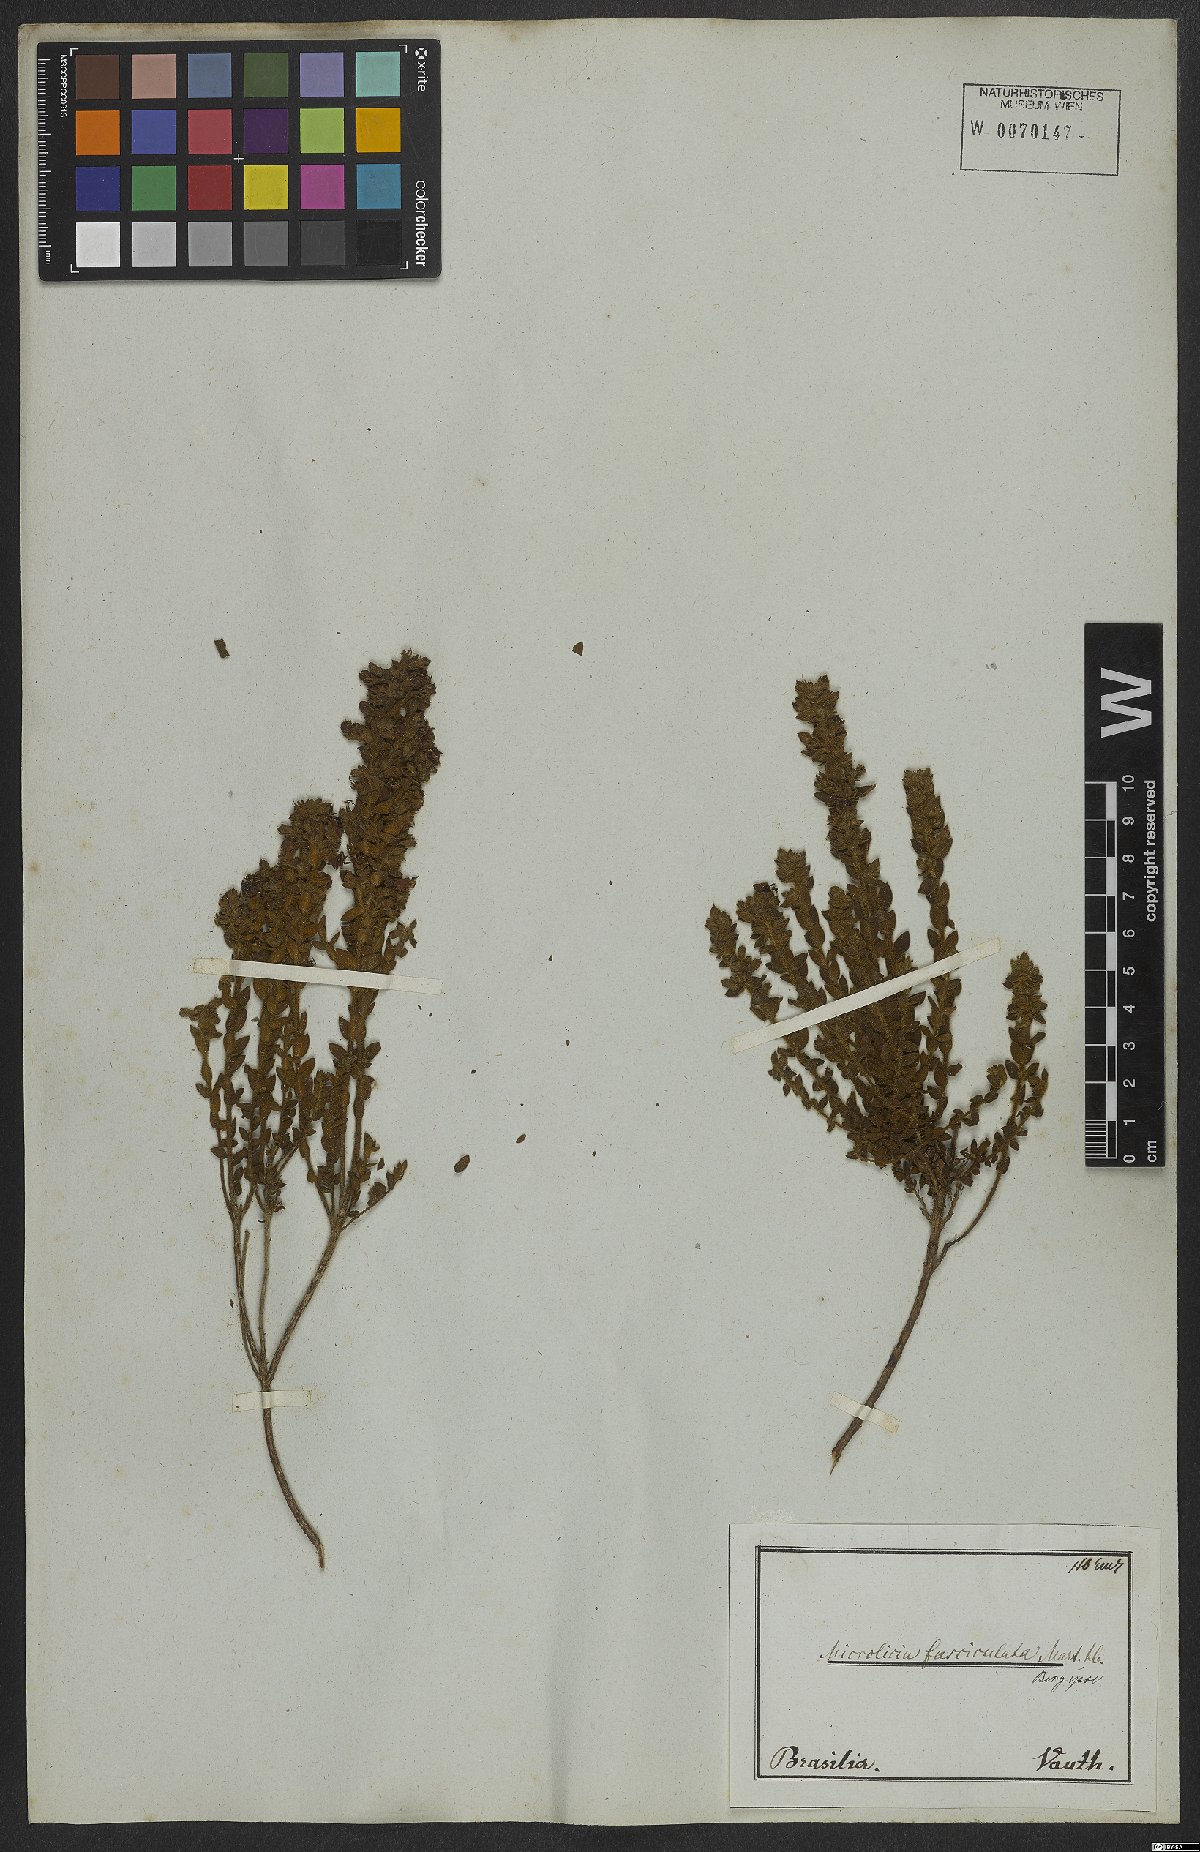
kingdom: Plantae
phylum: Tracheophyta
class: Magnoliopsida
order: Myrtales
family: Melastomataceae
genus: Microlicia
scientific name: Microlicia fasciculata
